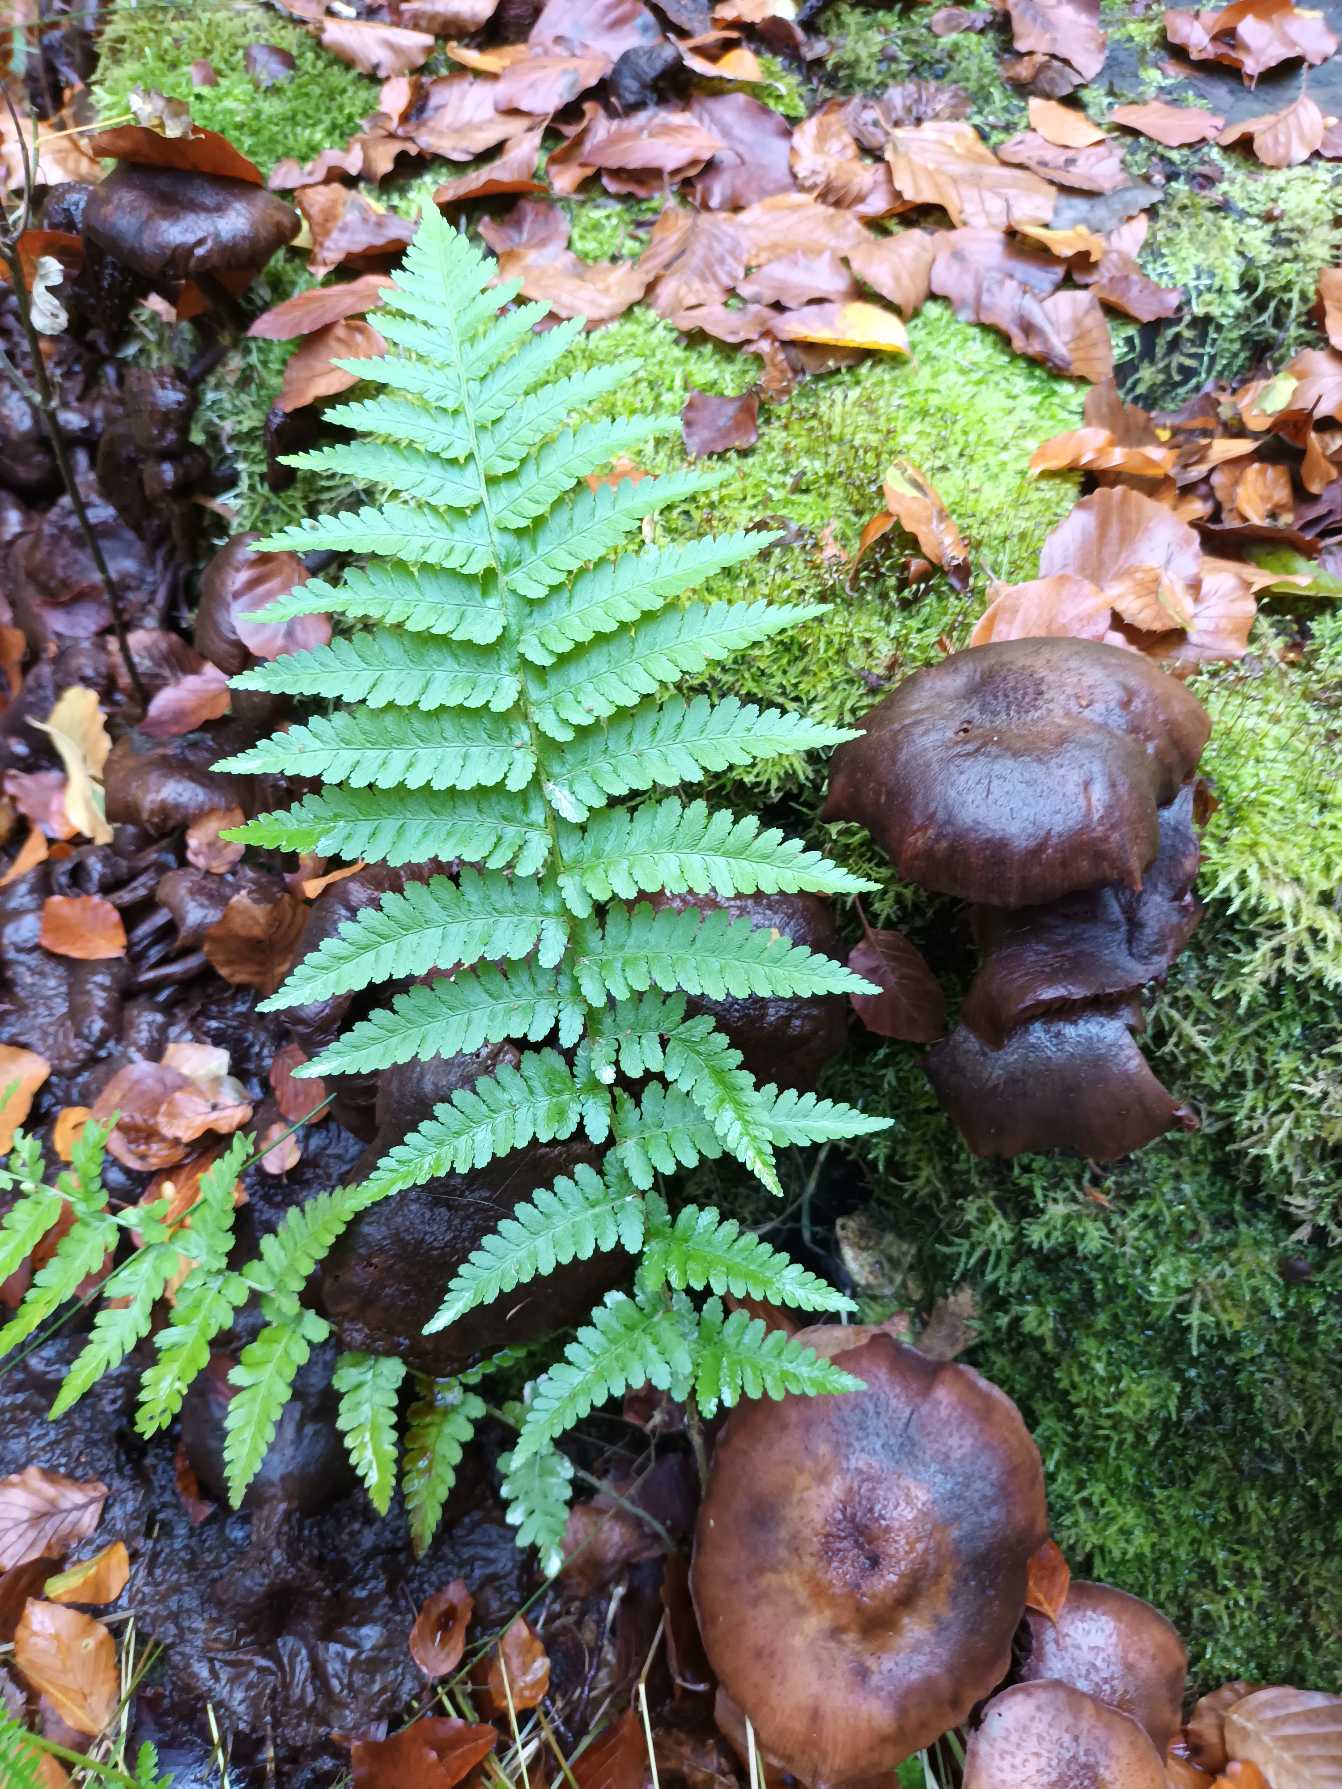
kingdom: Plantae
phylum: Tracheophyta
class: Polypodiopsida
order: Polypodiales
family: Dryopteridaceae
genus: Dryopteris
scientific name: Dryopteris filix-mas
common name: Almindelig mangeløv
